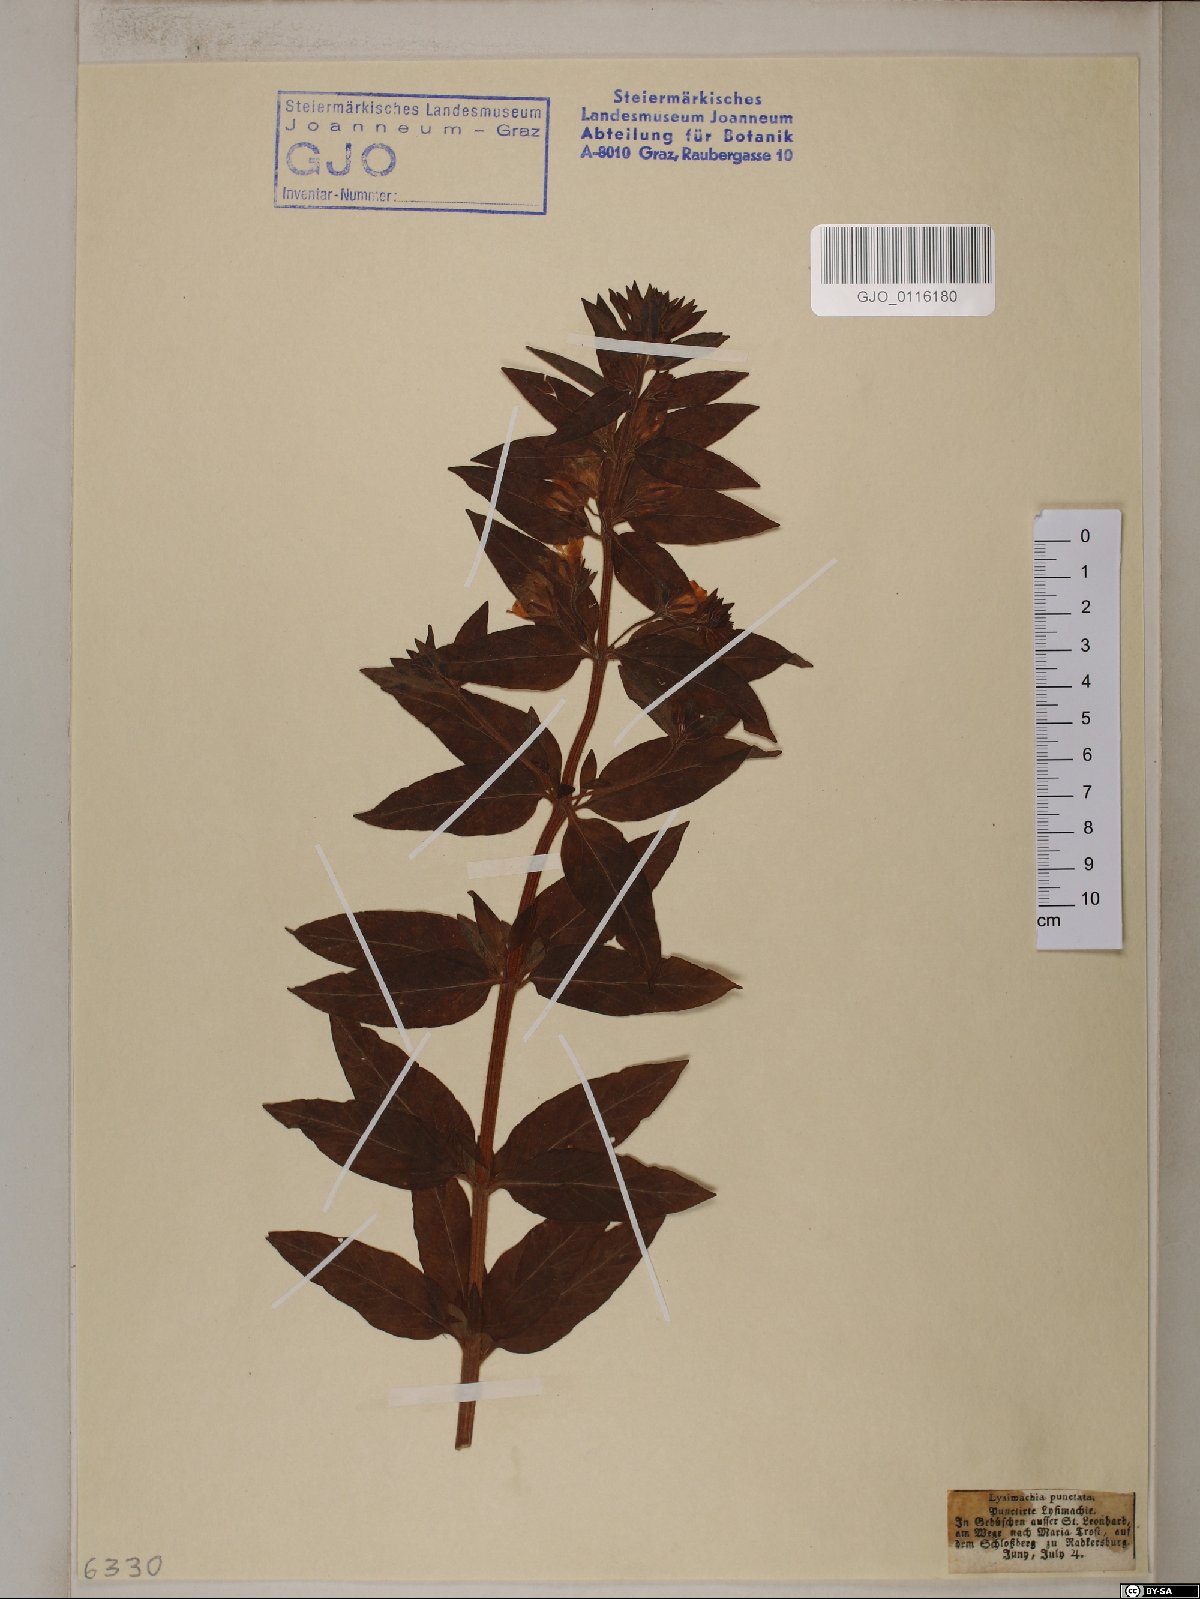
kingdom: Plantae
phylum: Tracheophyta
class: Magnoliopsida
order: Ericales
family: Primulaceae
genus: Lysimachia
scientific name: Lysimachia punctata
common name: Dotted loosestrife
